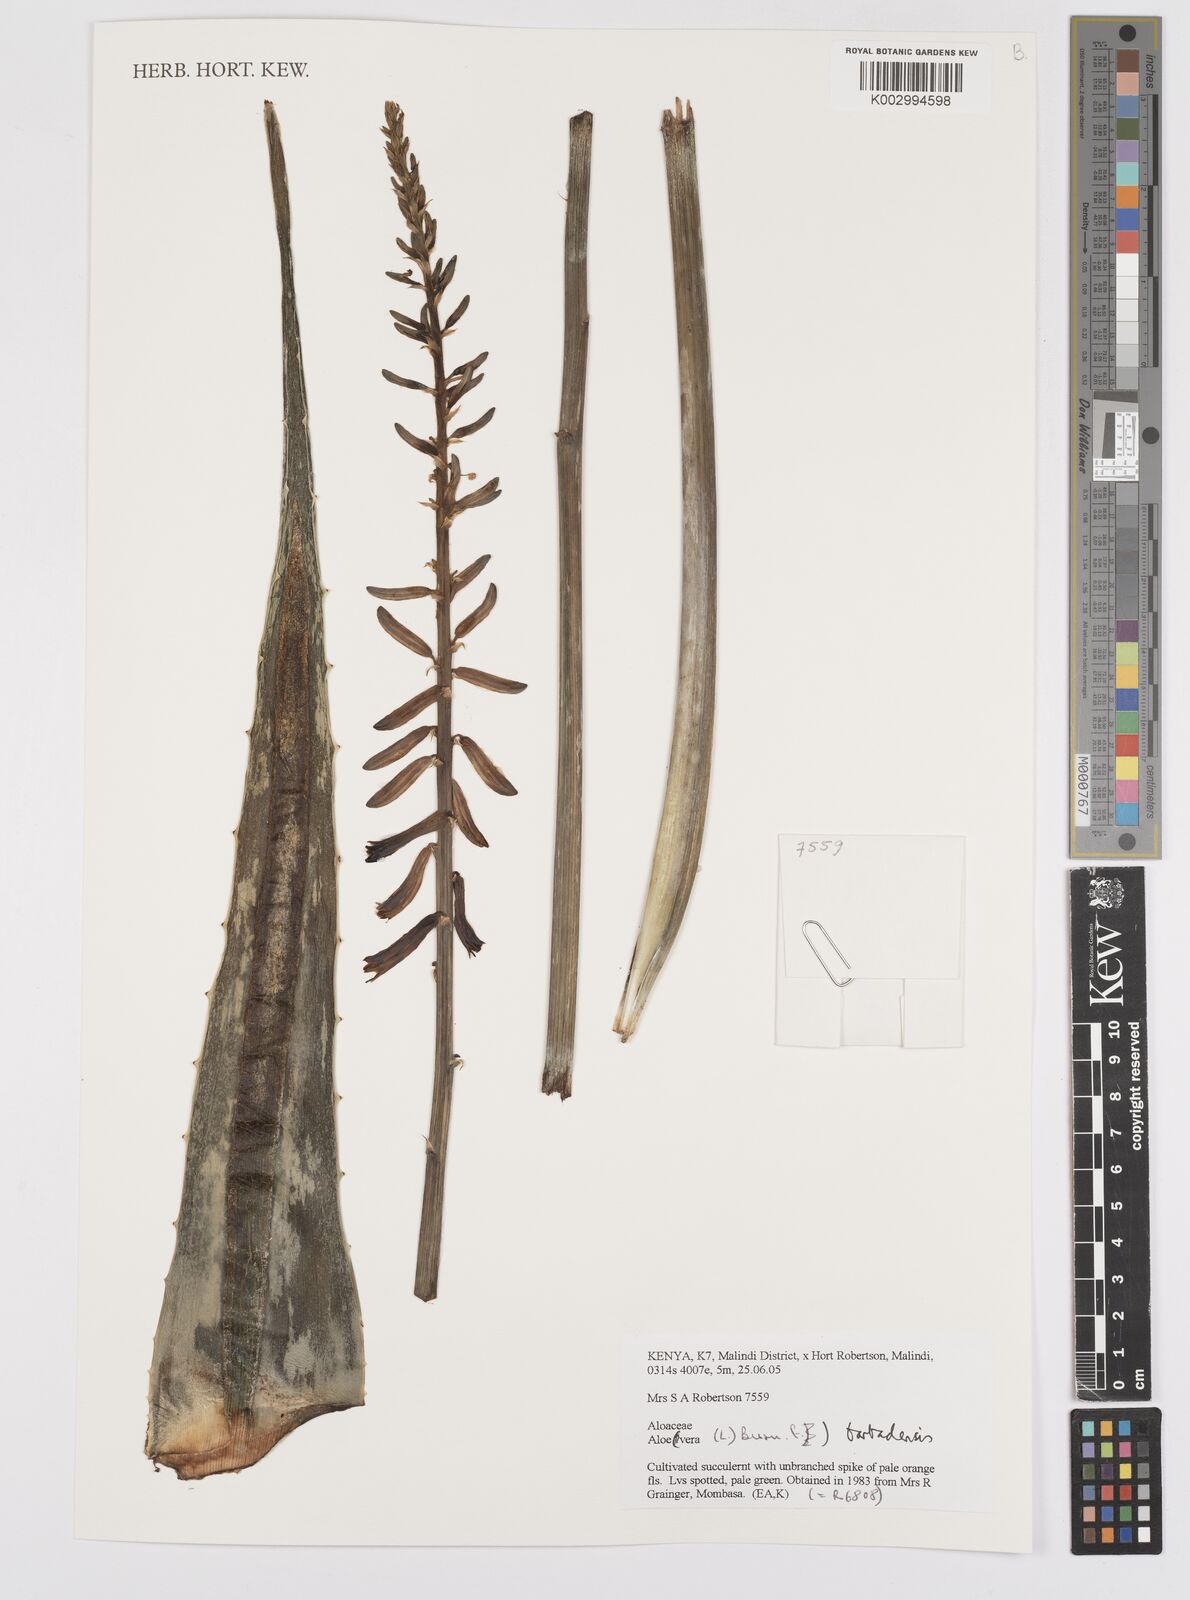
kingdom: Plantae
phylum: Tracheophyta
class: Liliopsida
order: Asparagales
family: Asphodelaceae
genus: Aloe
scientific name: Aloe vera
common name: Barbados aloe
